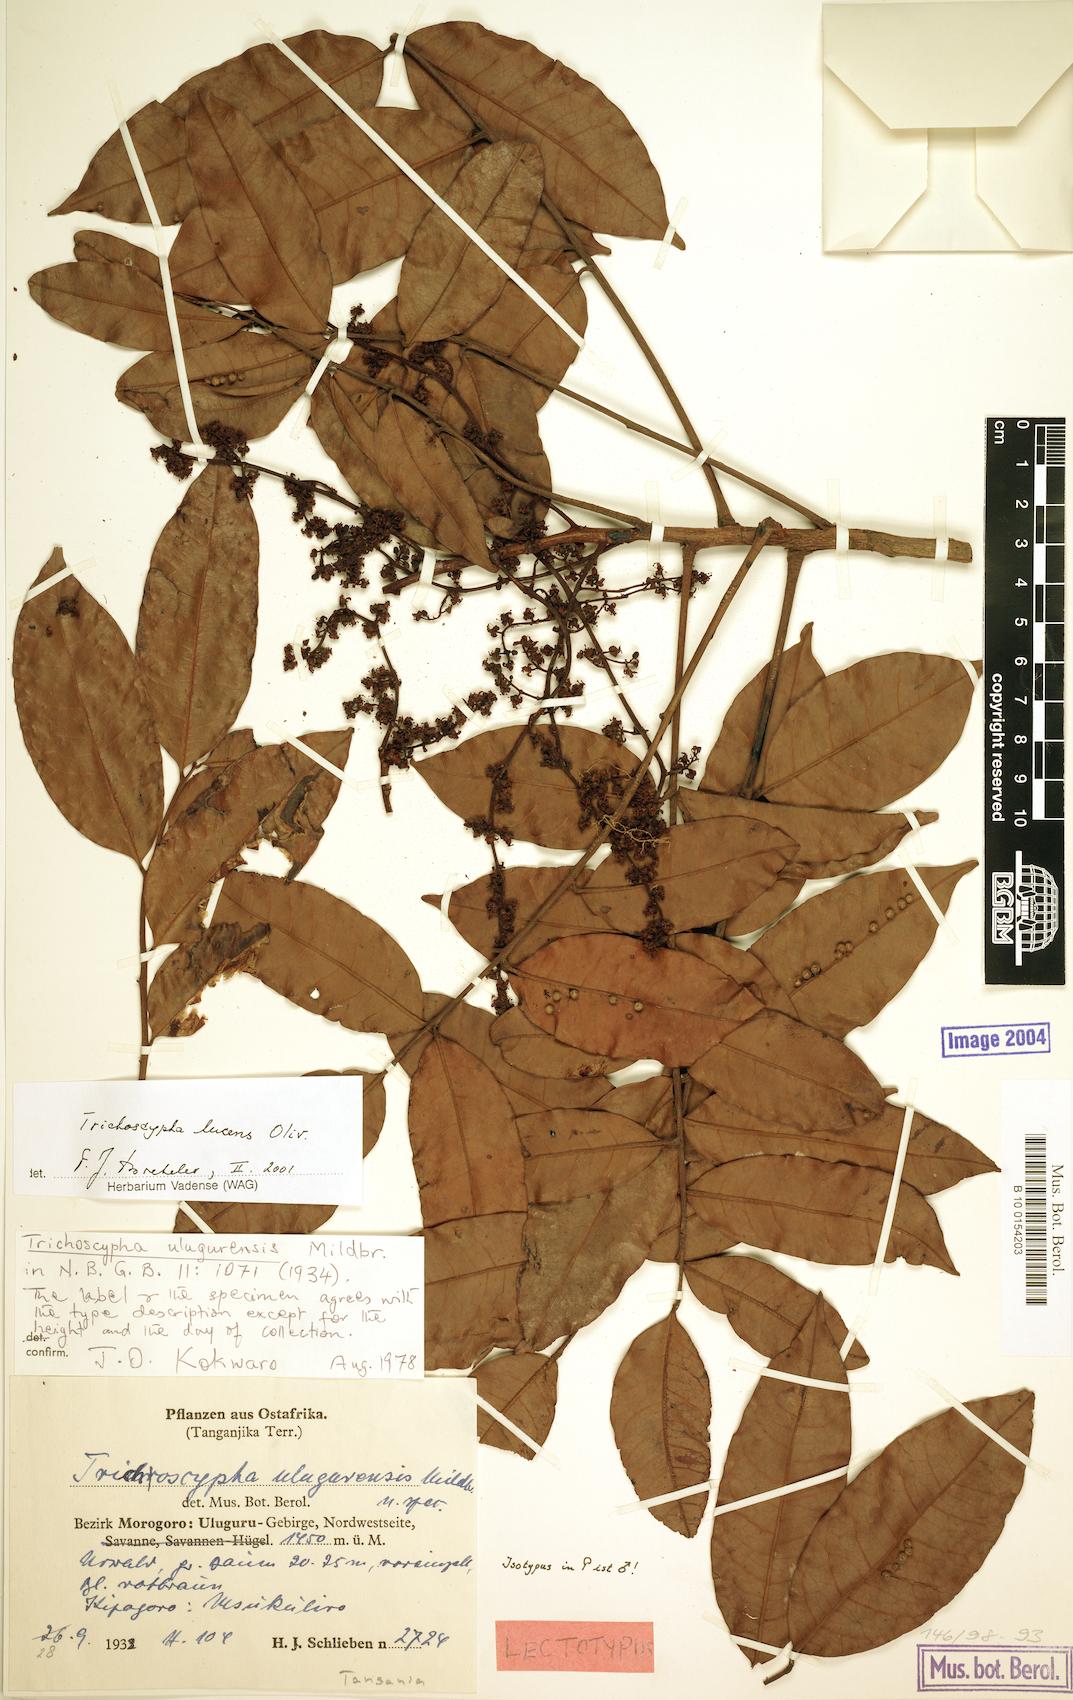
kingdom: Plantae
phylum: Tracheophyta
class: Magnoliopsida
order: Sapindales
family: Anacardiaceae
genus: Trichoscypha
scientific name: Trichoscypha lucens
